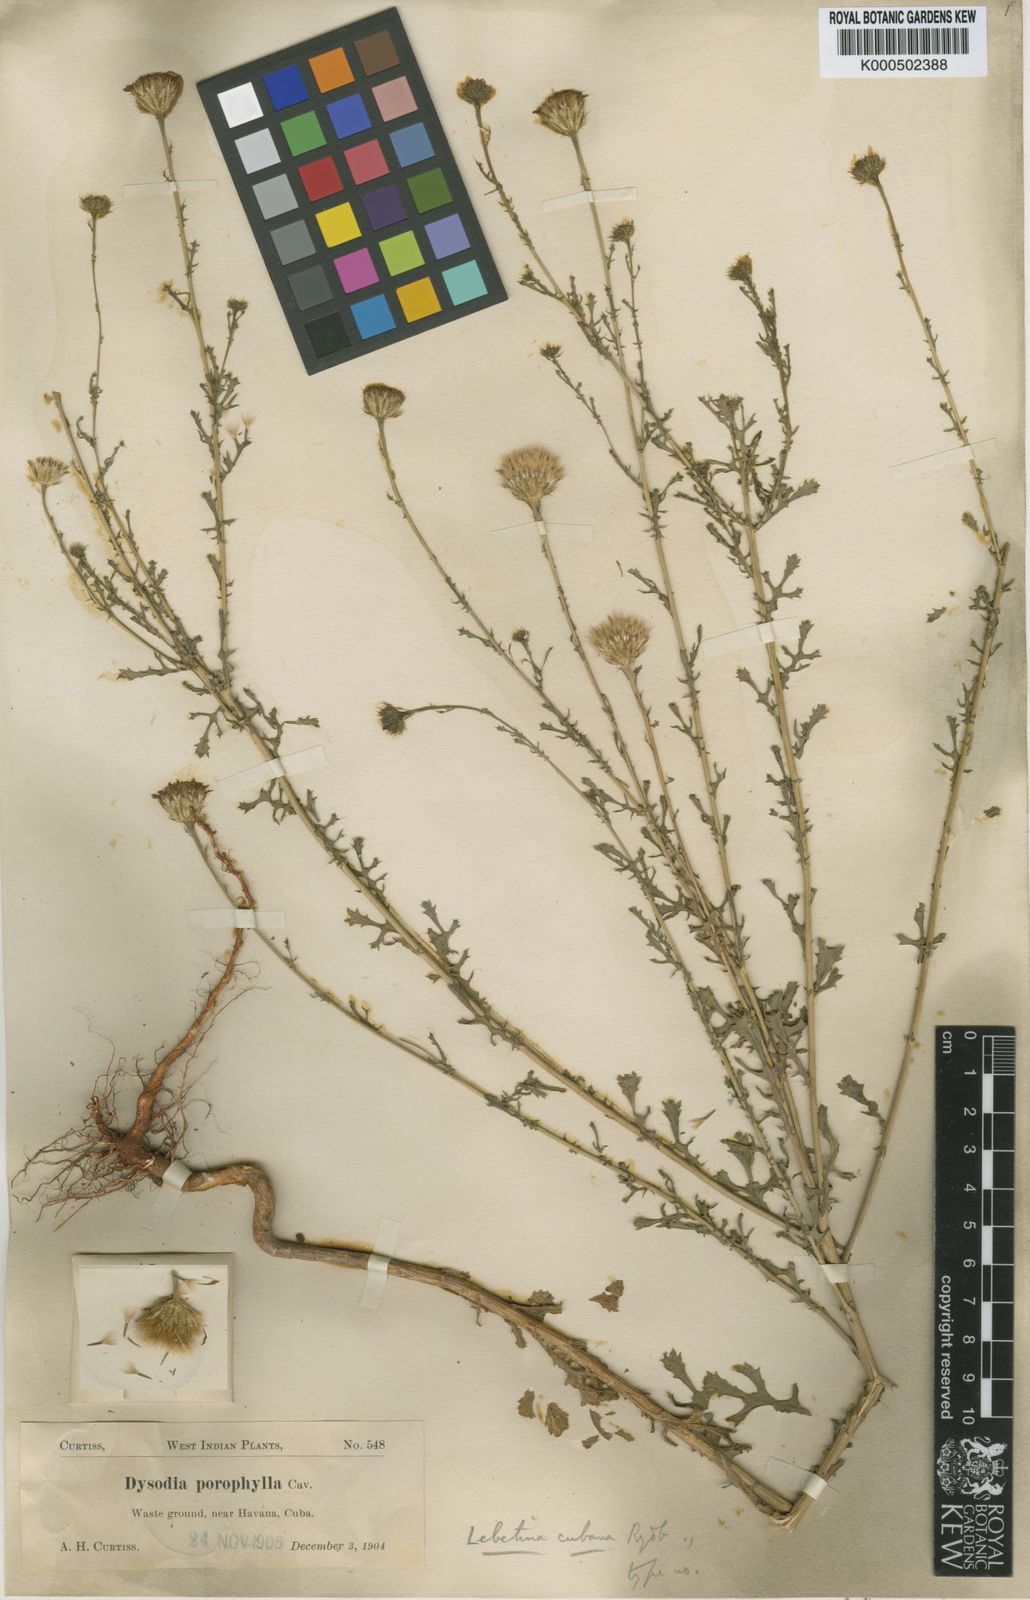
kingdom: Plantae
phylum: Tracheophyta
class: Magnoliopsida
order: Asterales
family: Asteraceae
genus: Adenophyllum
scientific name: Adenophyllum porophyllum
